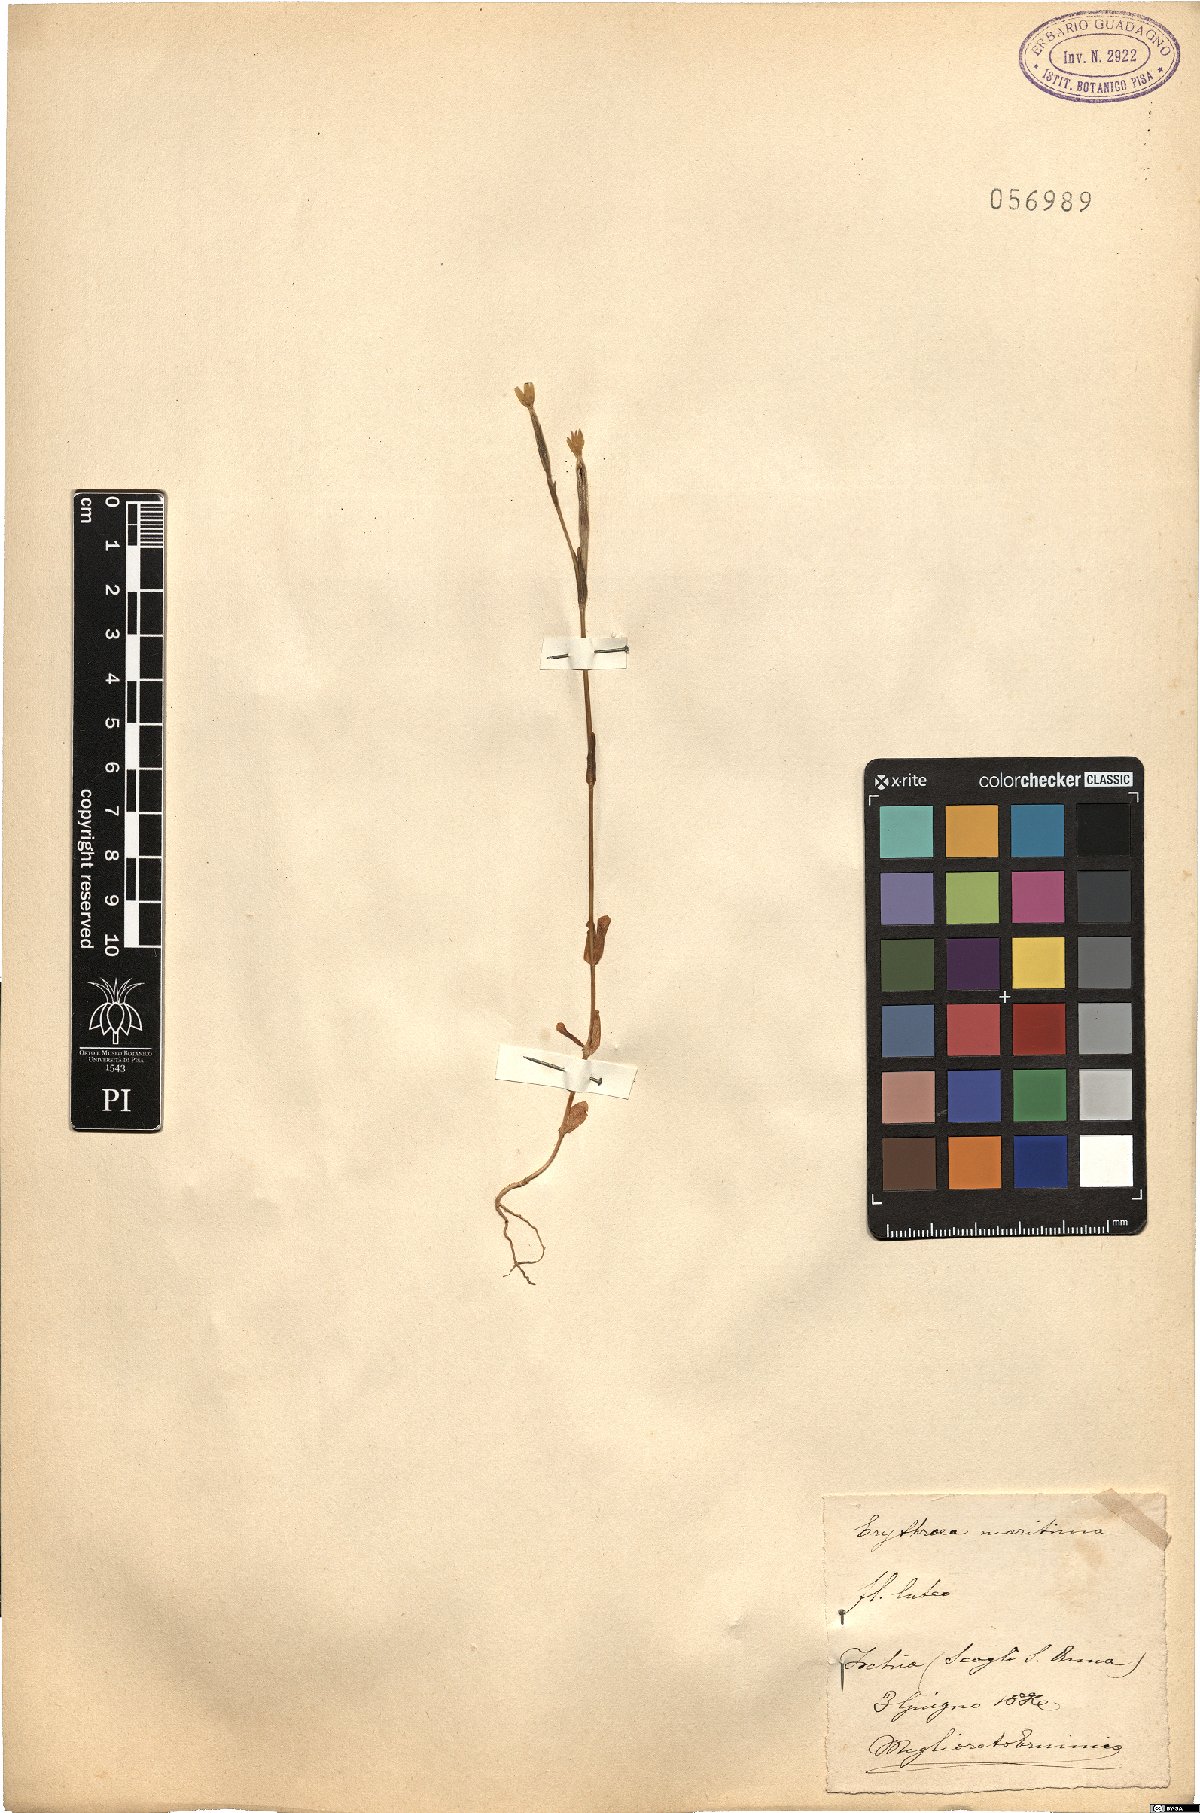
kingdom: Plantae
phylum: Tracheophyta
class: Magnoliopsida
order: Gentianales
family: Gentianaceae
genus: Centaurium
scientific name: Centaurium maritimum
